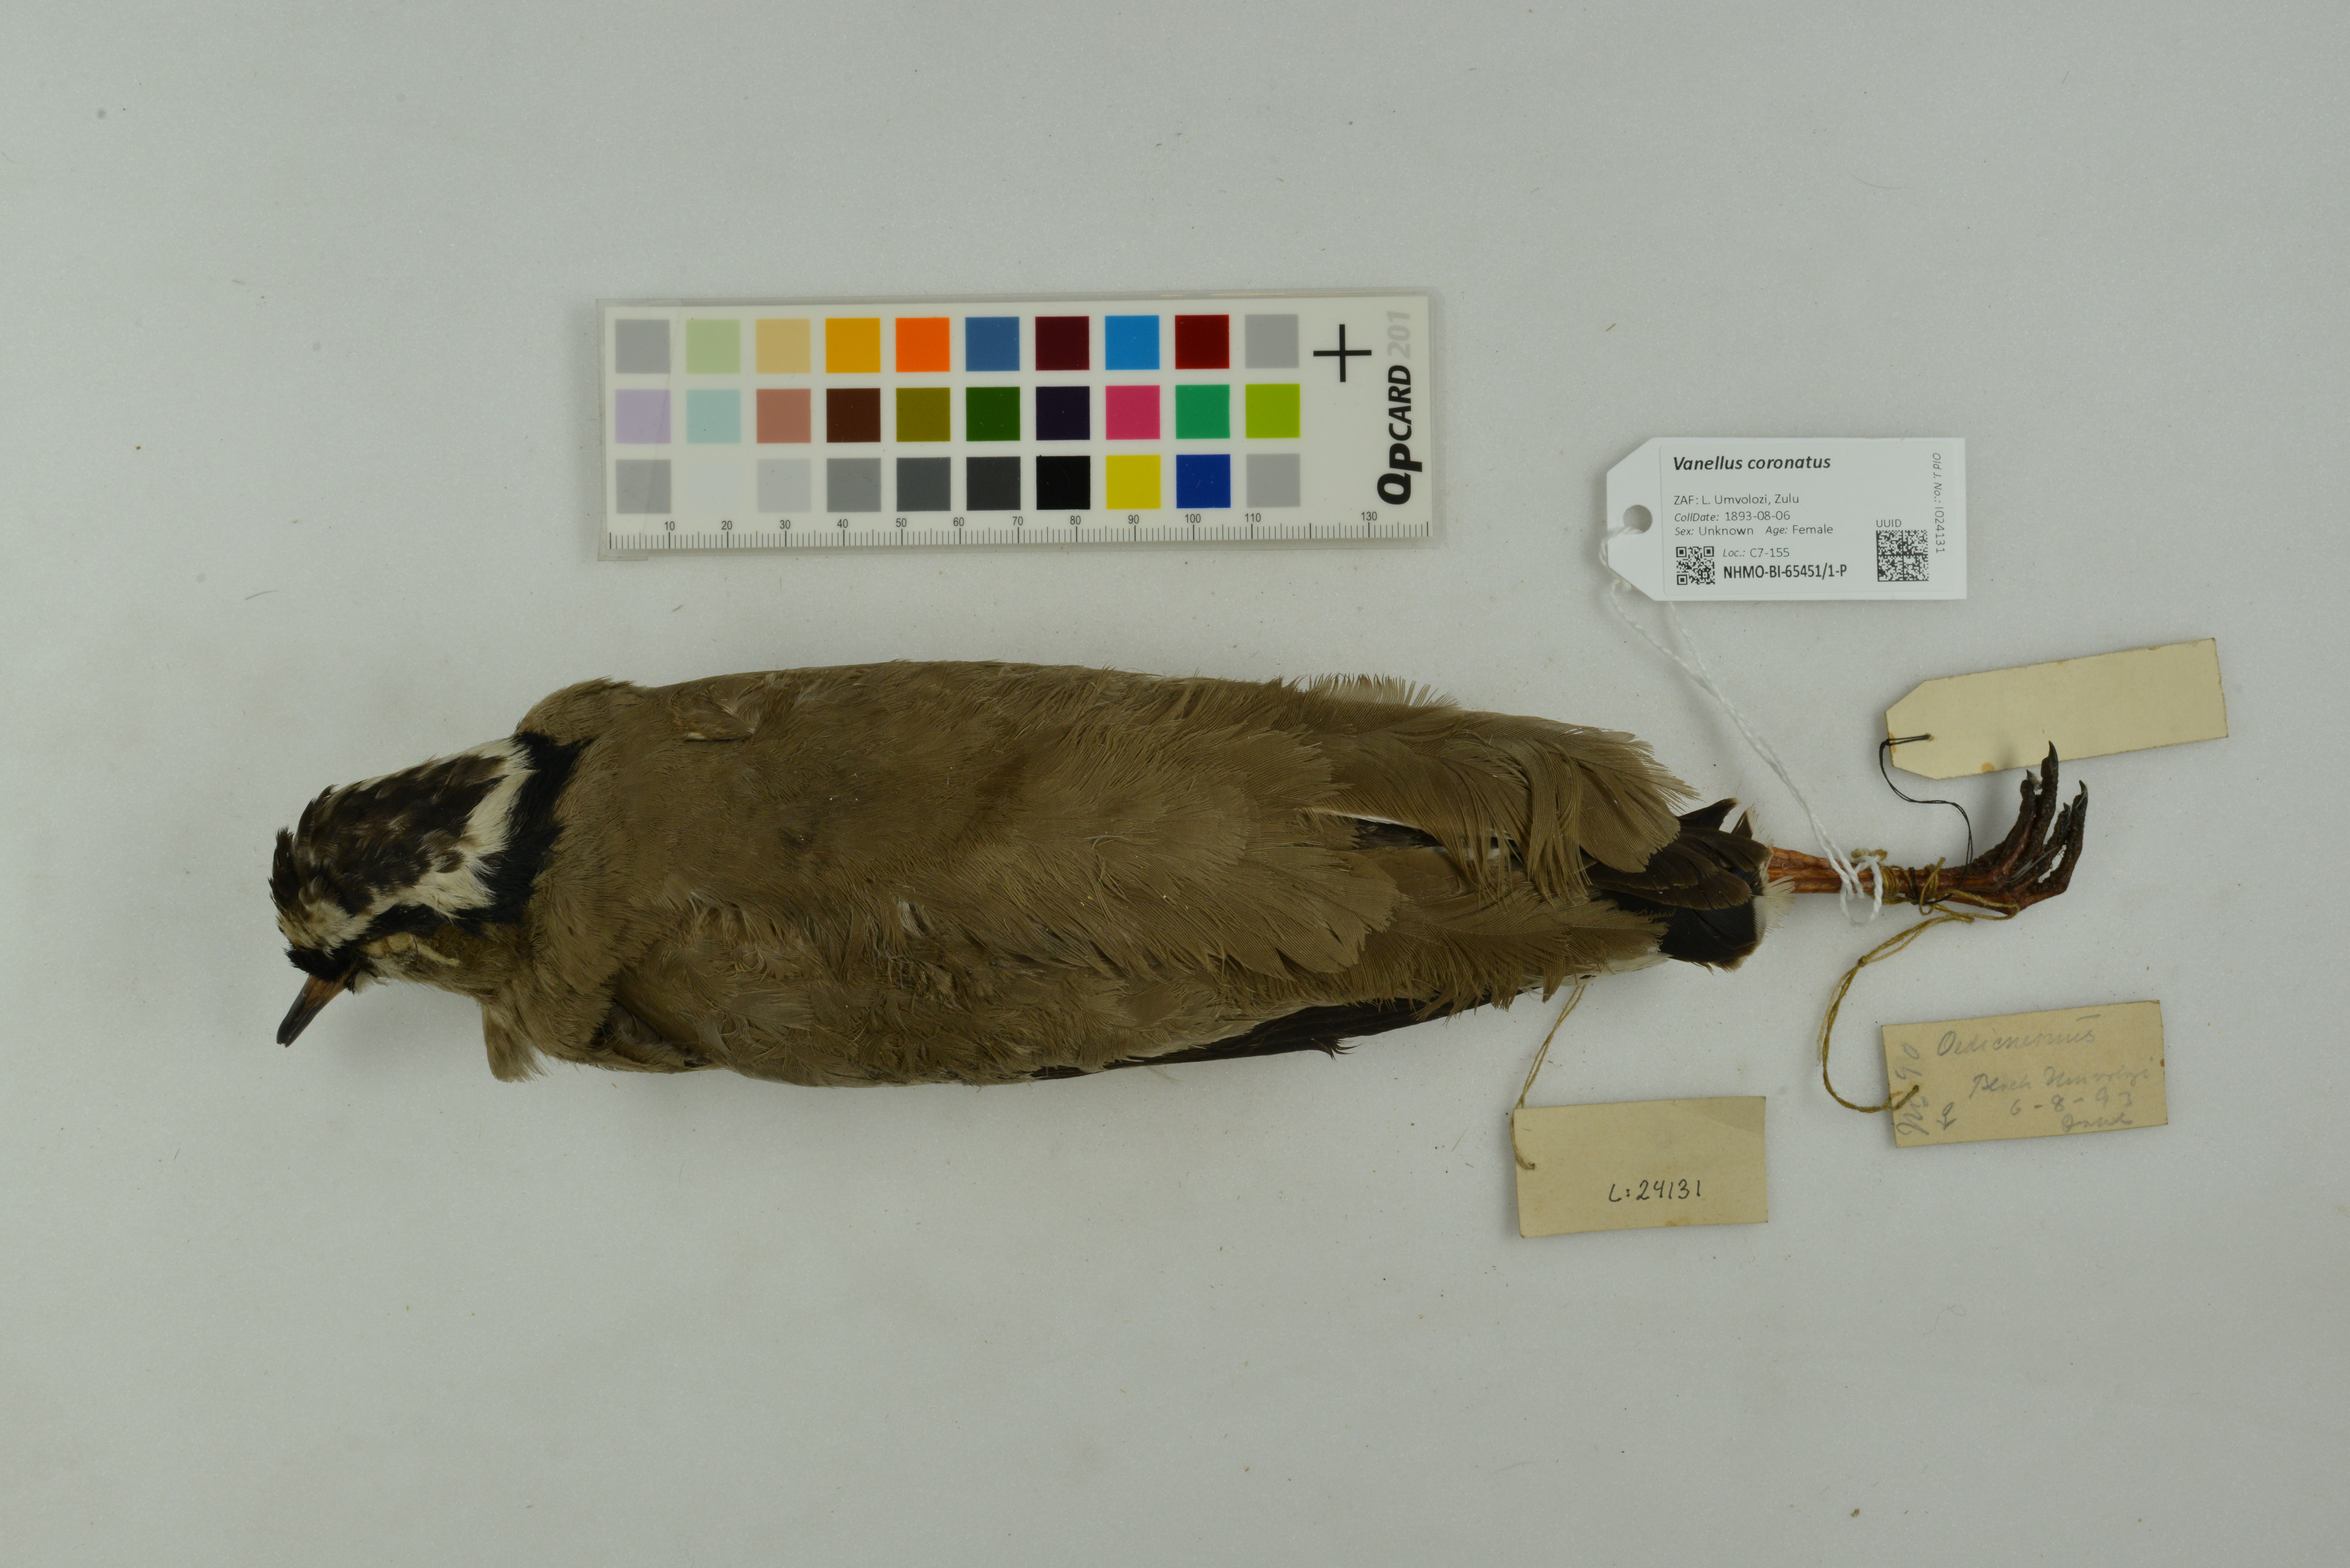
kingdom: Animalia
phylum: Chordata
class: Aves
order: Charadriiformes
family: Charadriidae
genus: Vanellus
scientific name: Vanellus coronatus
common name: Crowned lapwing
